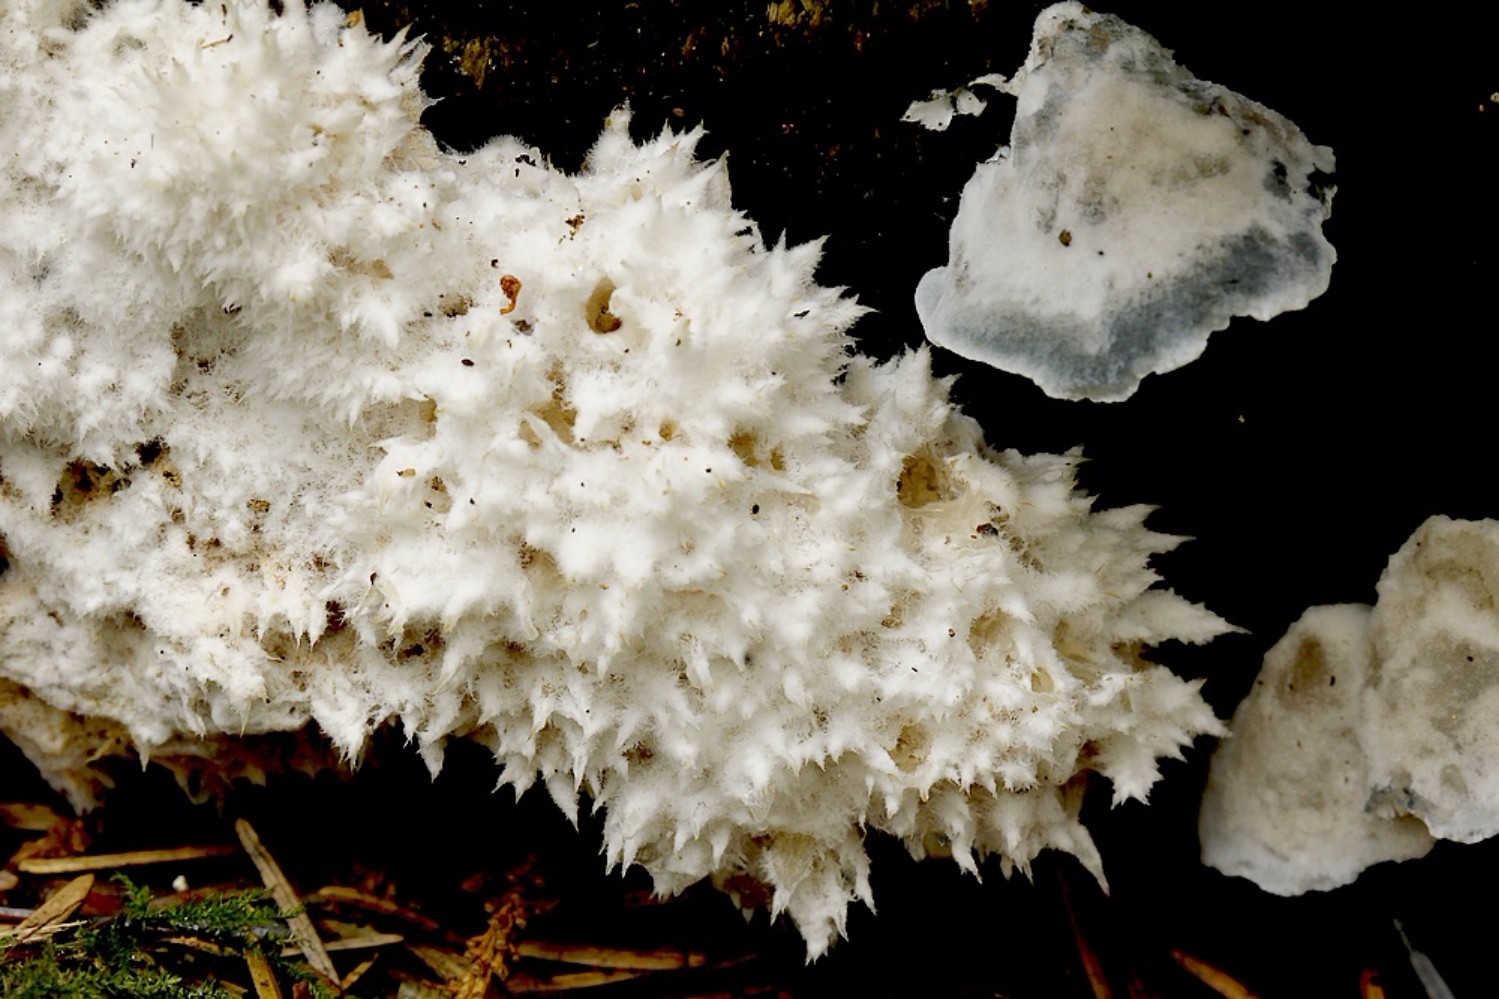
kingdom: Fungi
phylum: Basidiomycota
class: Agaricomycetes
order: Polyporales
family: Dacryobolaceae
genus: Postia
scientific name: Postia ptychogaster
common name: støvende kødporesvamp
